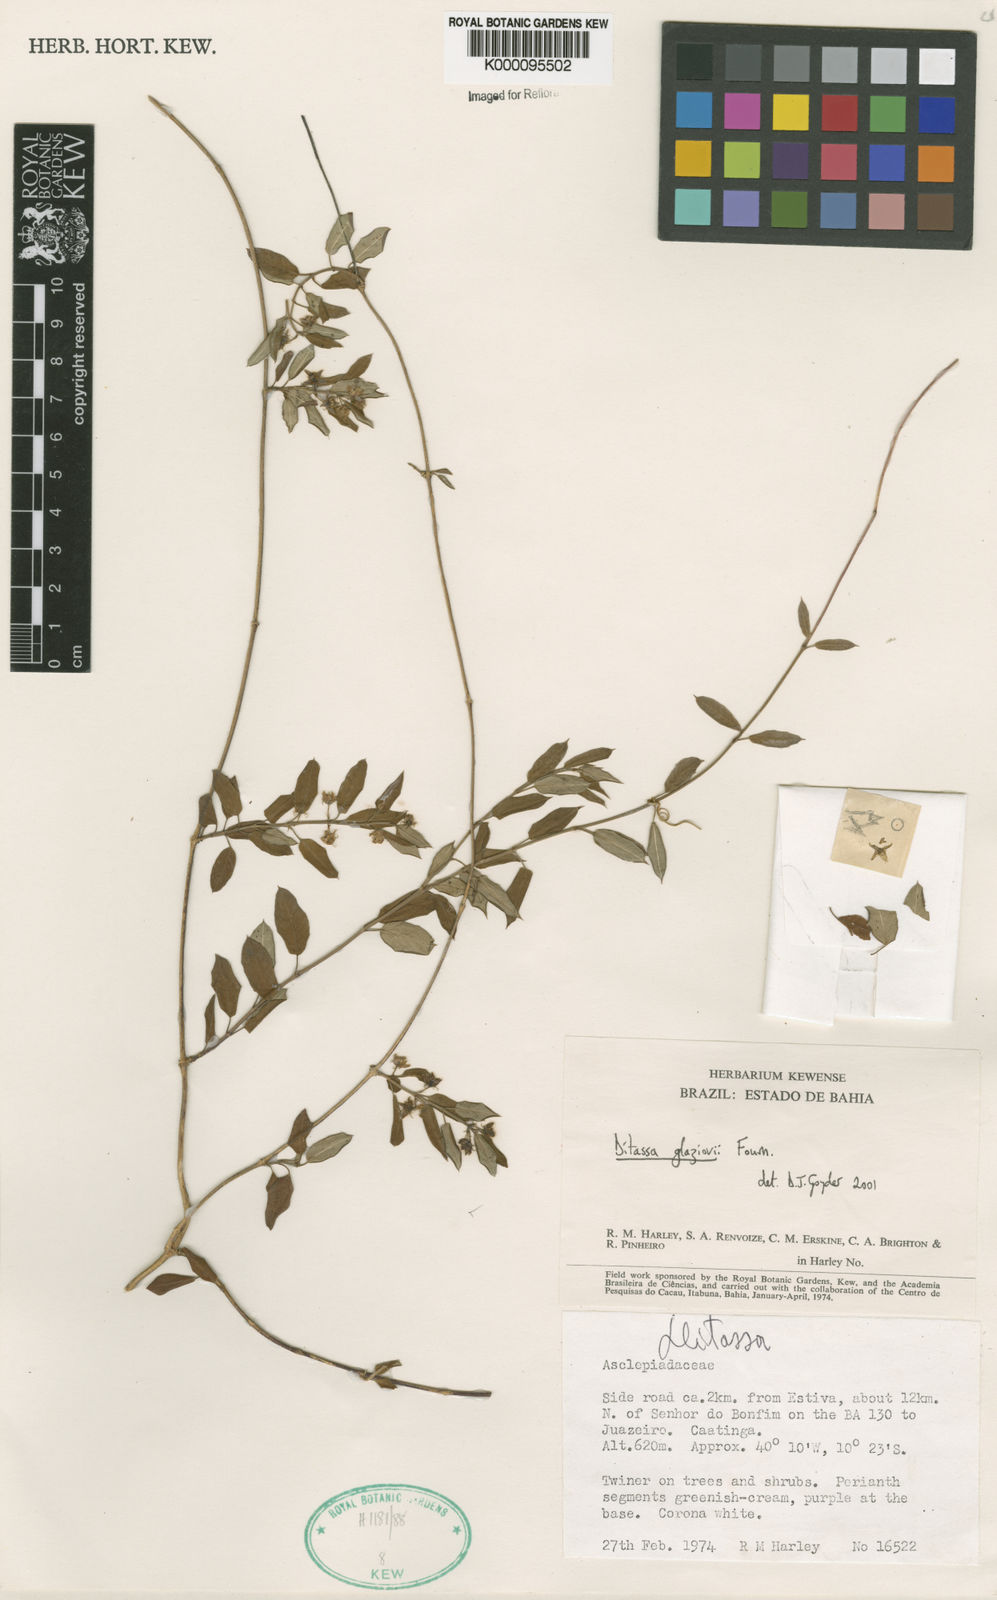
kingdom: Plantae
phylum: Tracheophyta
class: Magnoliopsida
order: Gentianales
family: Apocynaceae
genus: Ditassa
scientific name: Ditassa
